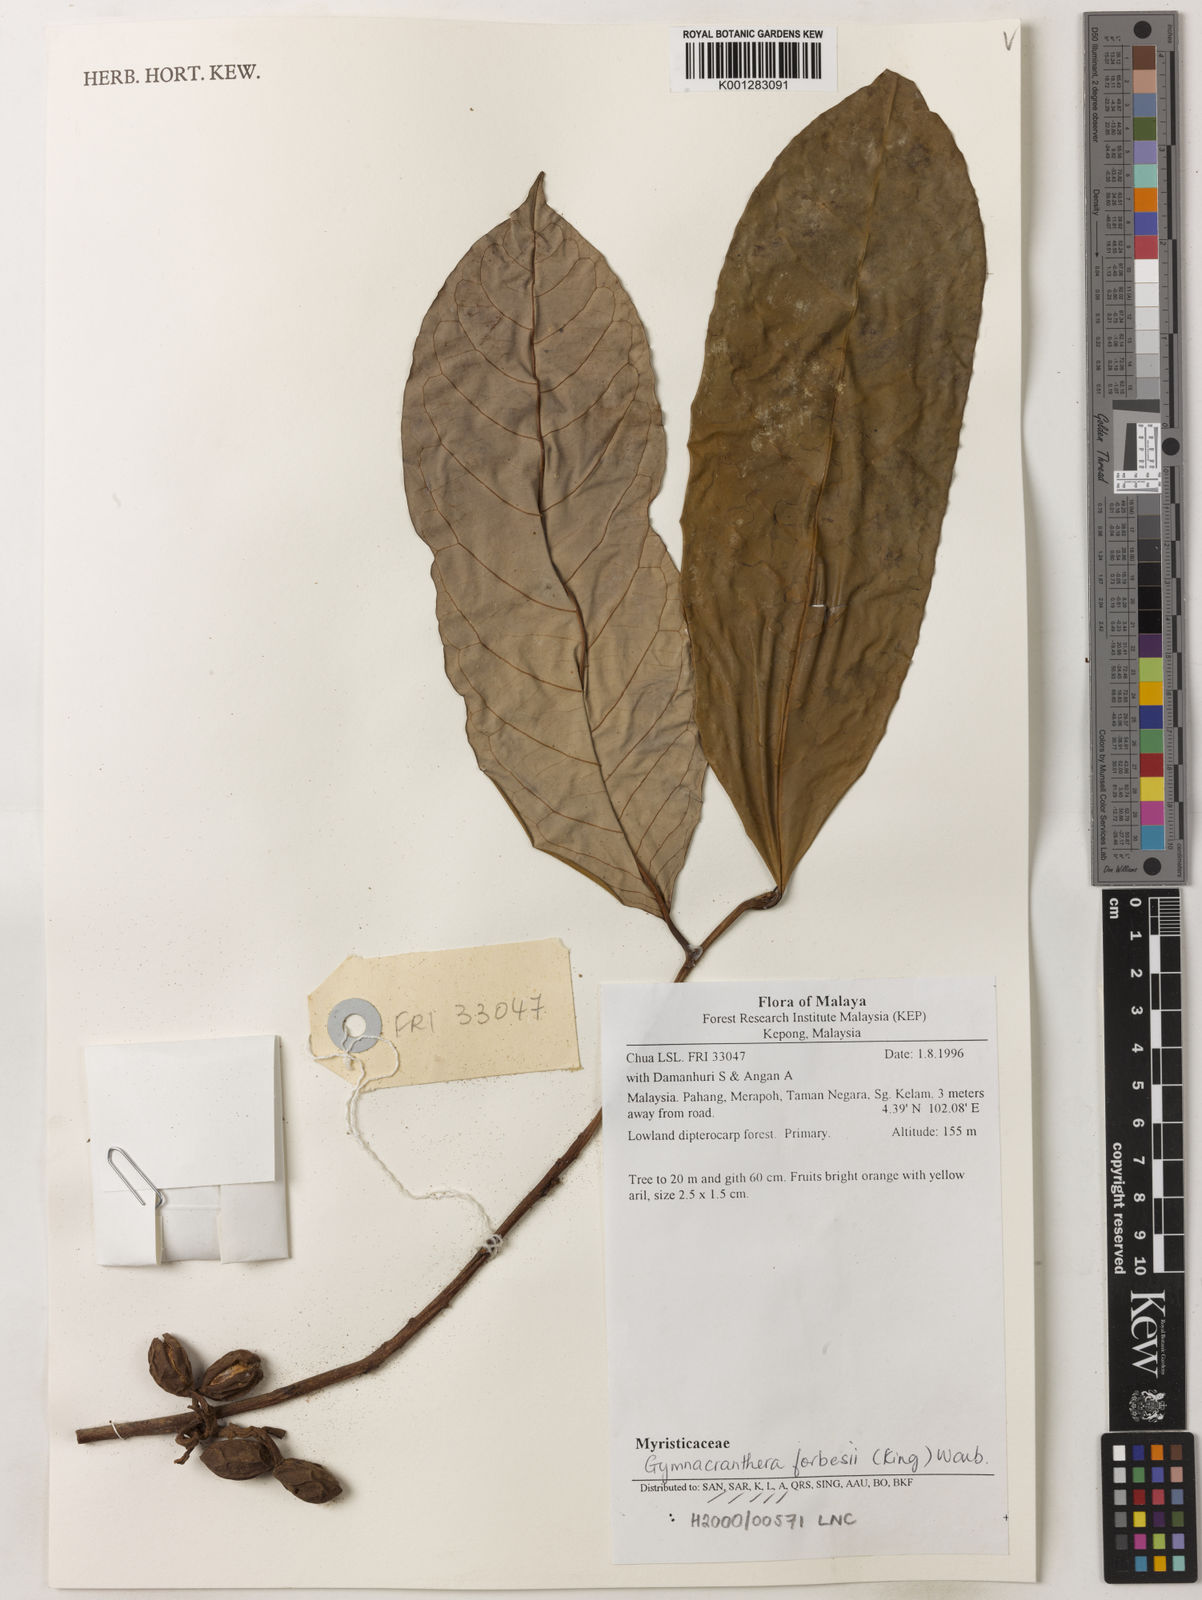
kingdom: Plantae
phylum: Tracheophyta
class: Magnoliopsida
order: Magnoliales
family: Myristicaceae
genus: Gymnacranthera
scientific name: Gymnacranthera forbesii
